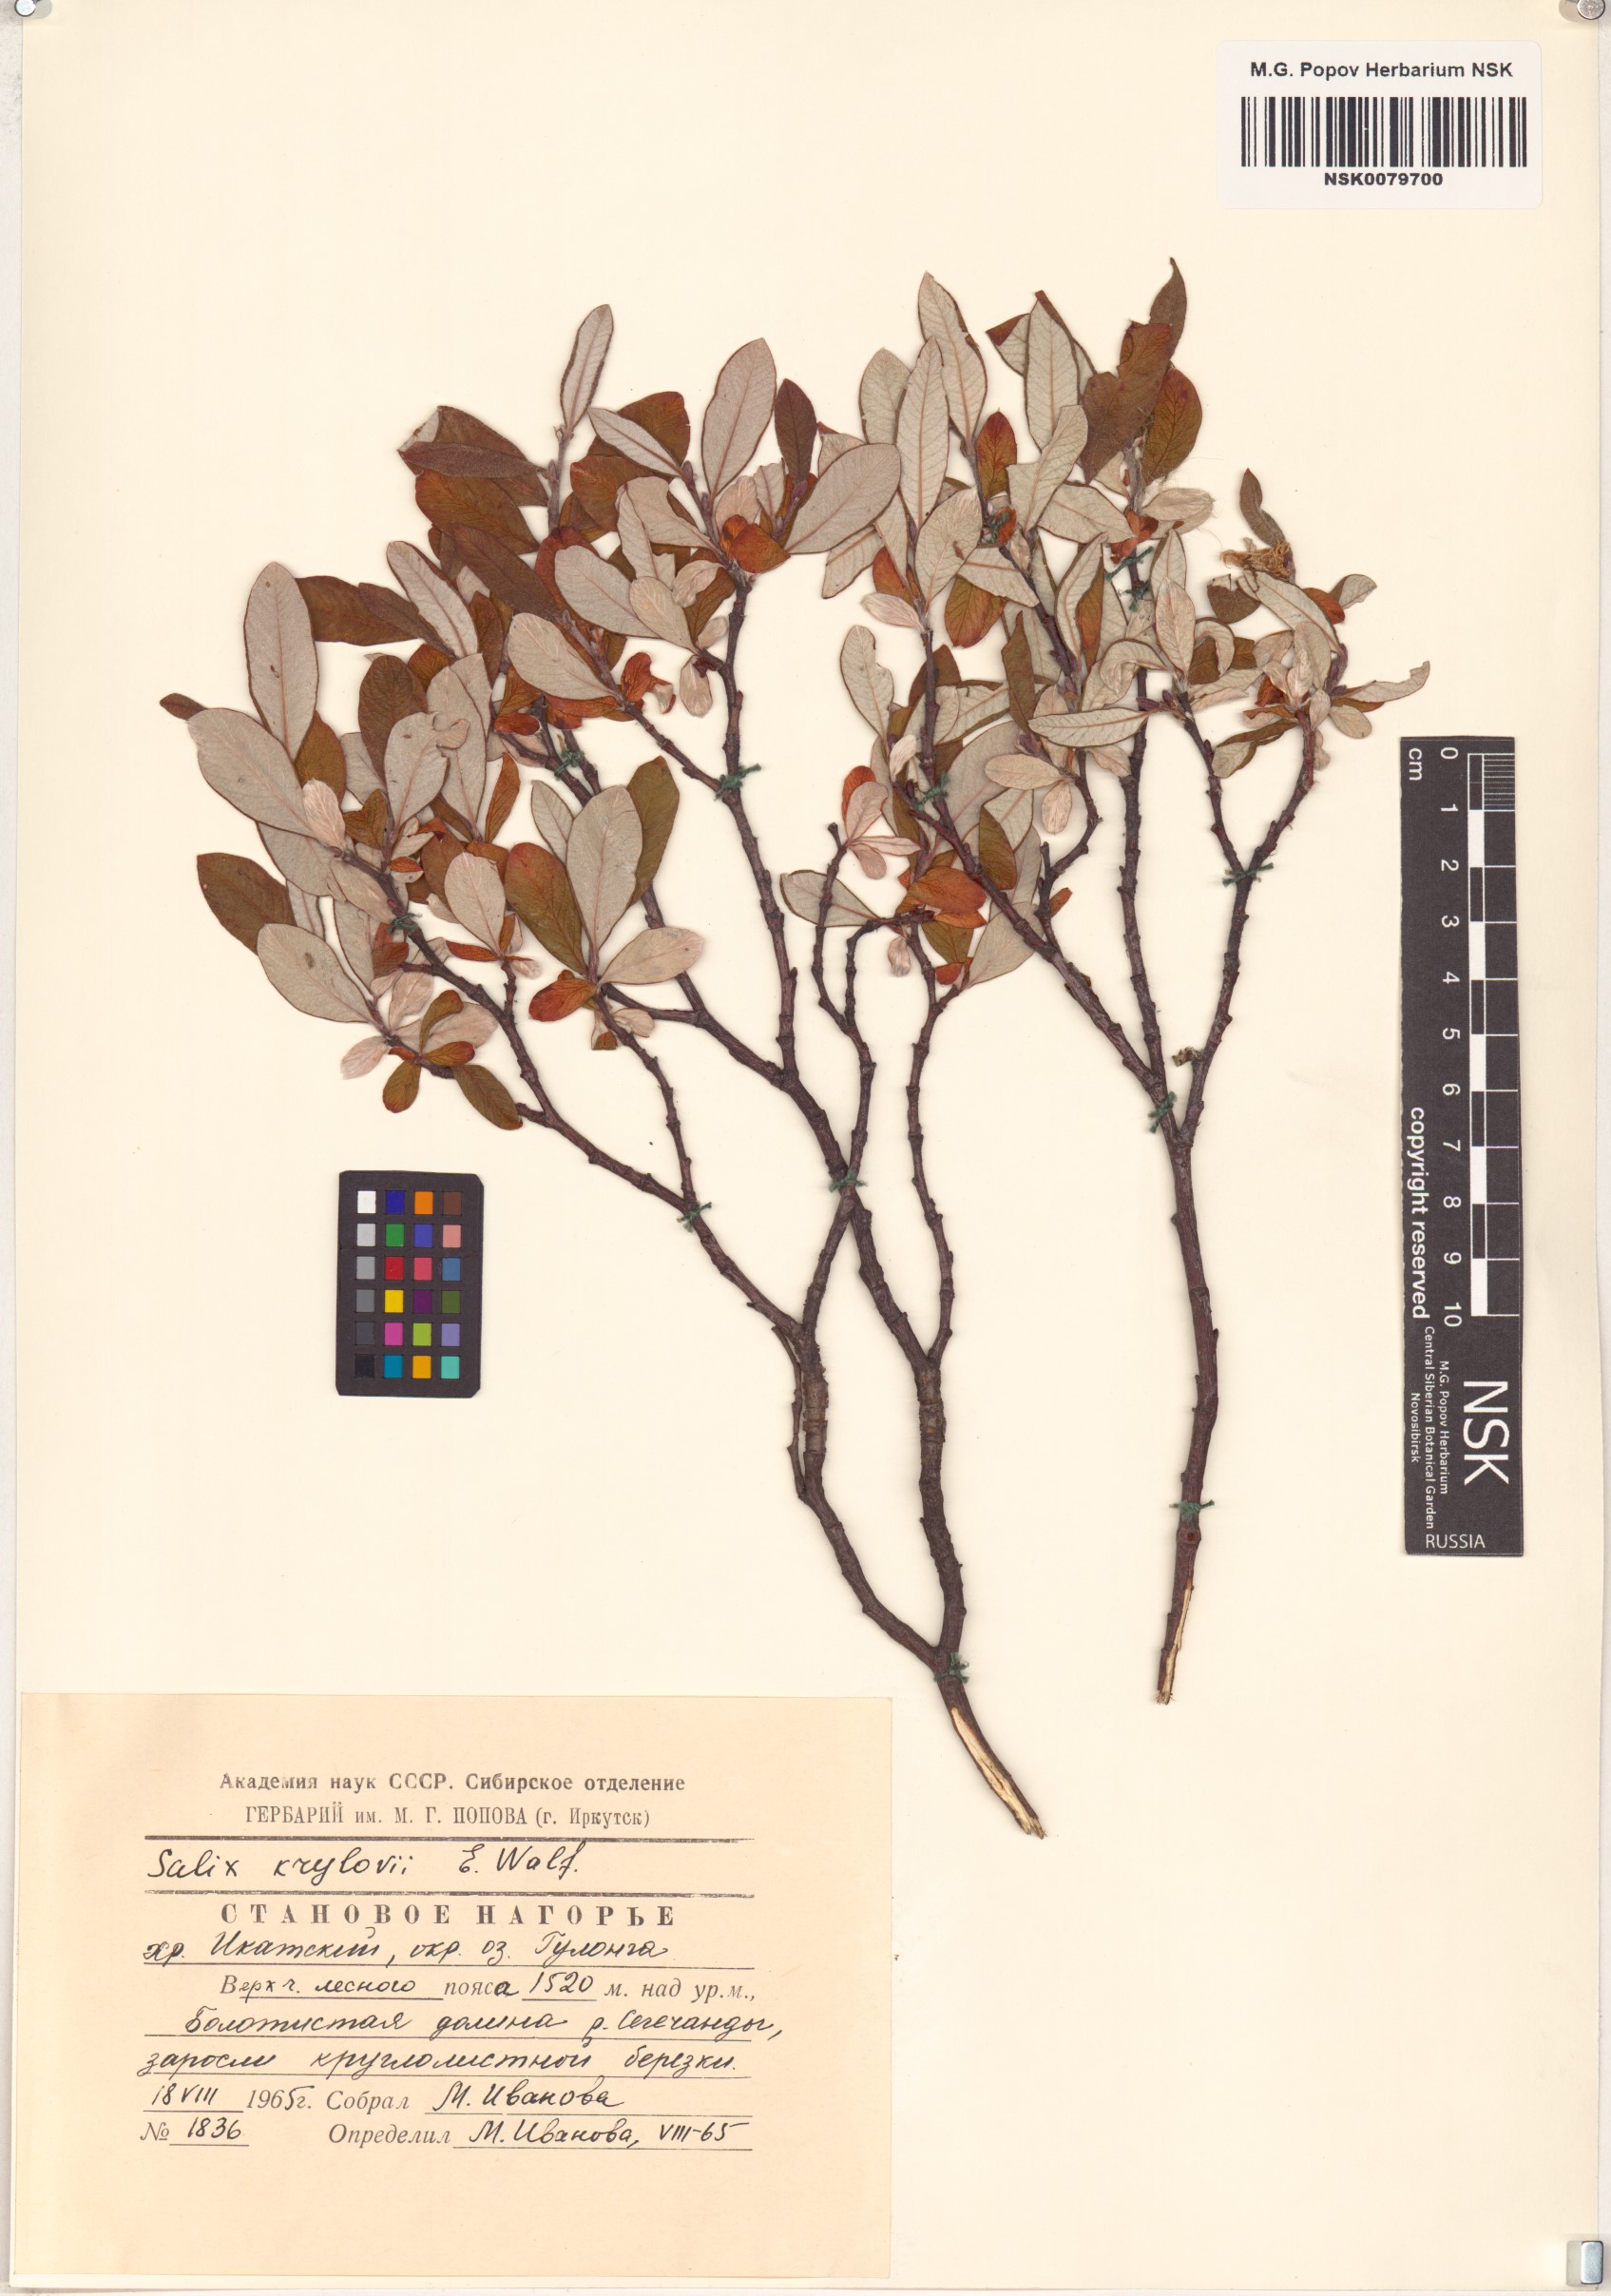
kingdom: Plantae
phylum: Tracheophyta
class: Magnoliopsida
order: Malpighiales
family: Salicaceae
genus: Salix
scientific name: Salix krylovii
